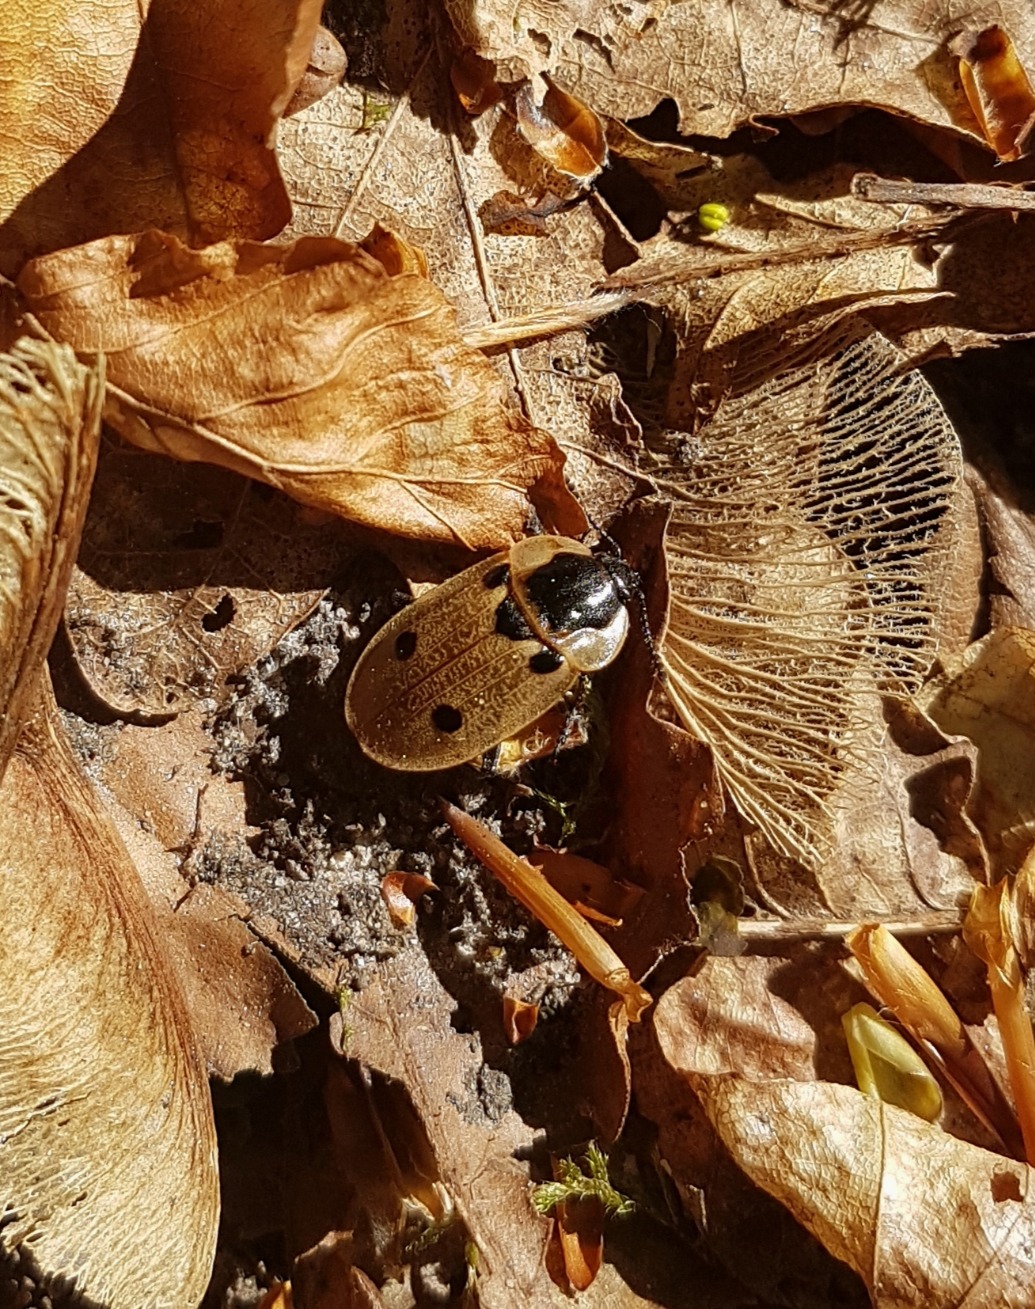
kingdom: Animalia
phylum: Arthropoda
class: Insecta
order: Coleoptera
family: Staphylinidae
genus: Dendroxena
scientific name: Dendroxena quadrimaculata
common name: Fireplettet ådselbille
